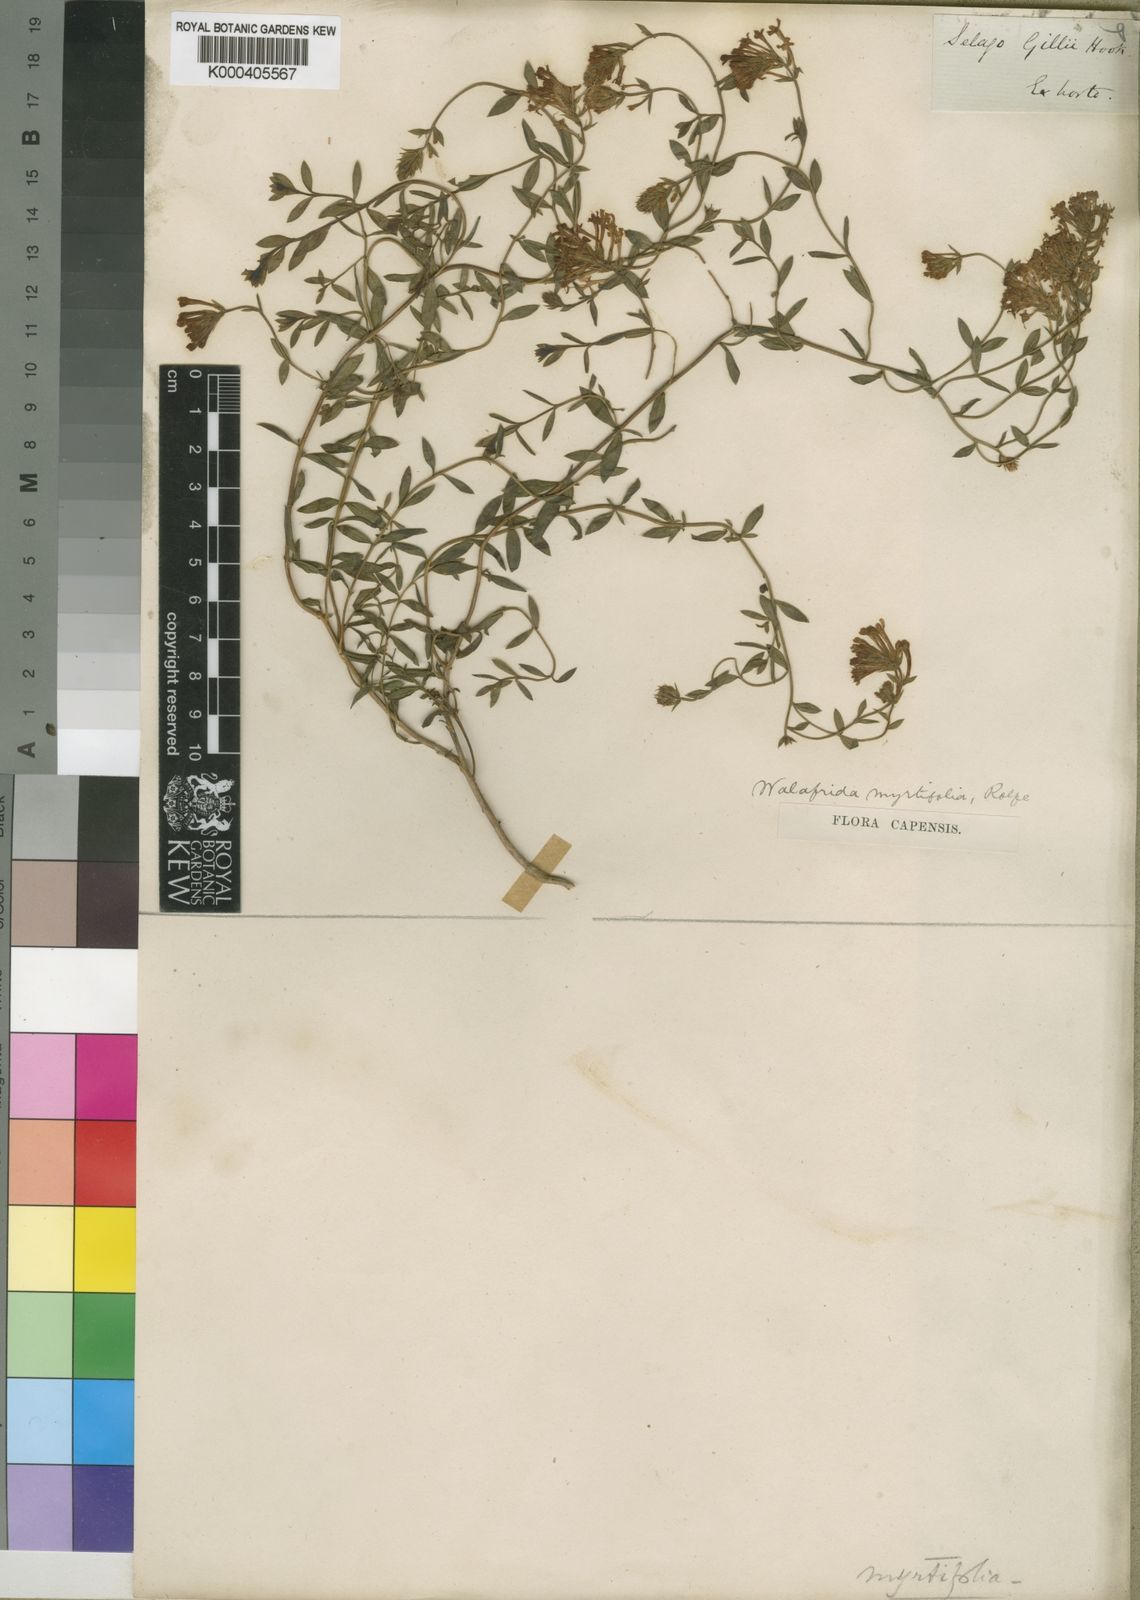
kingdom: Plantae
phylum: Tracheophyta
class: Magnoliopsida
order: Lamiales
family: Scrophulariaceae
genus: Selago
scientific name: Selago myrtifolia
